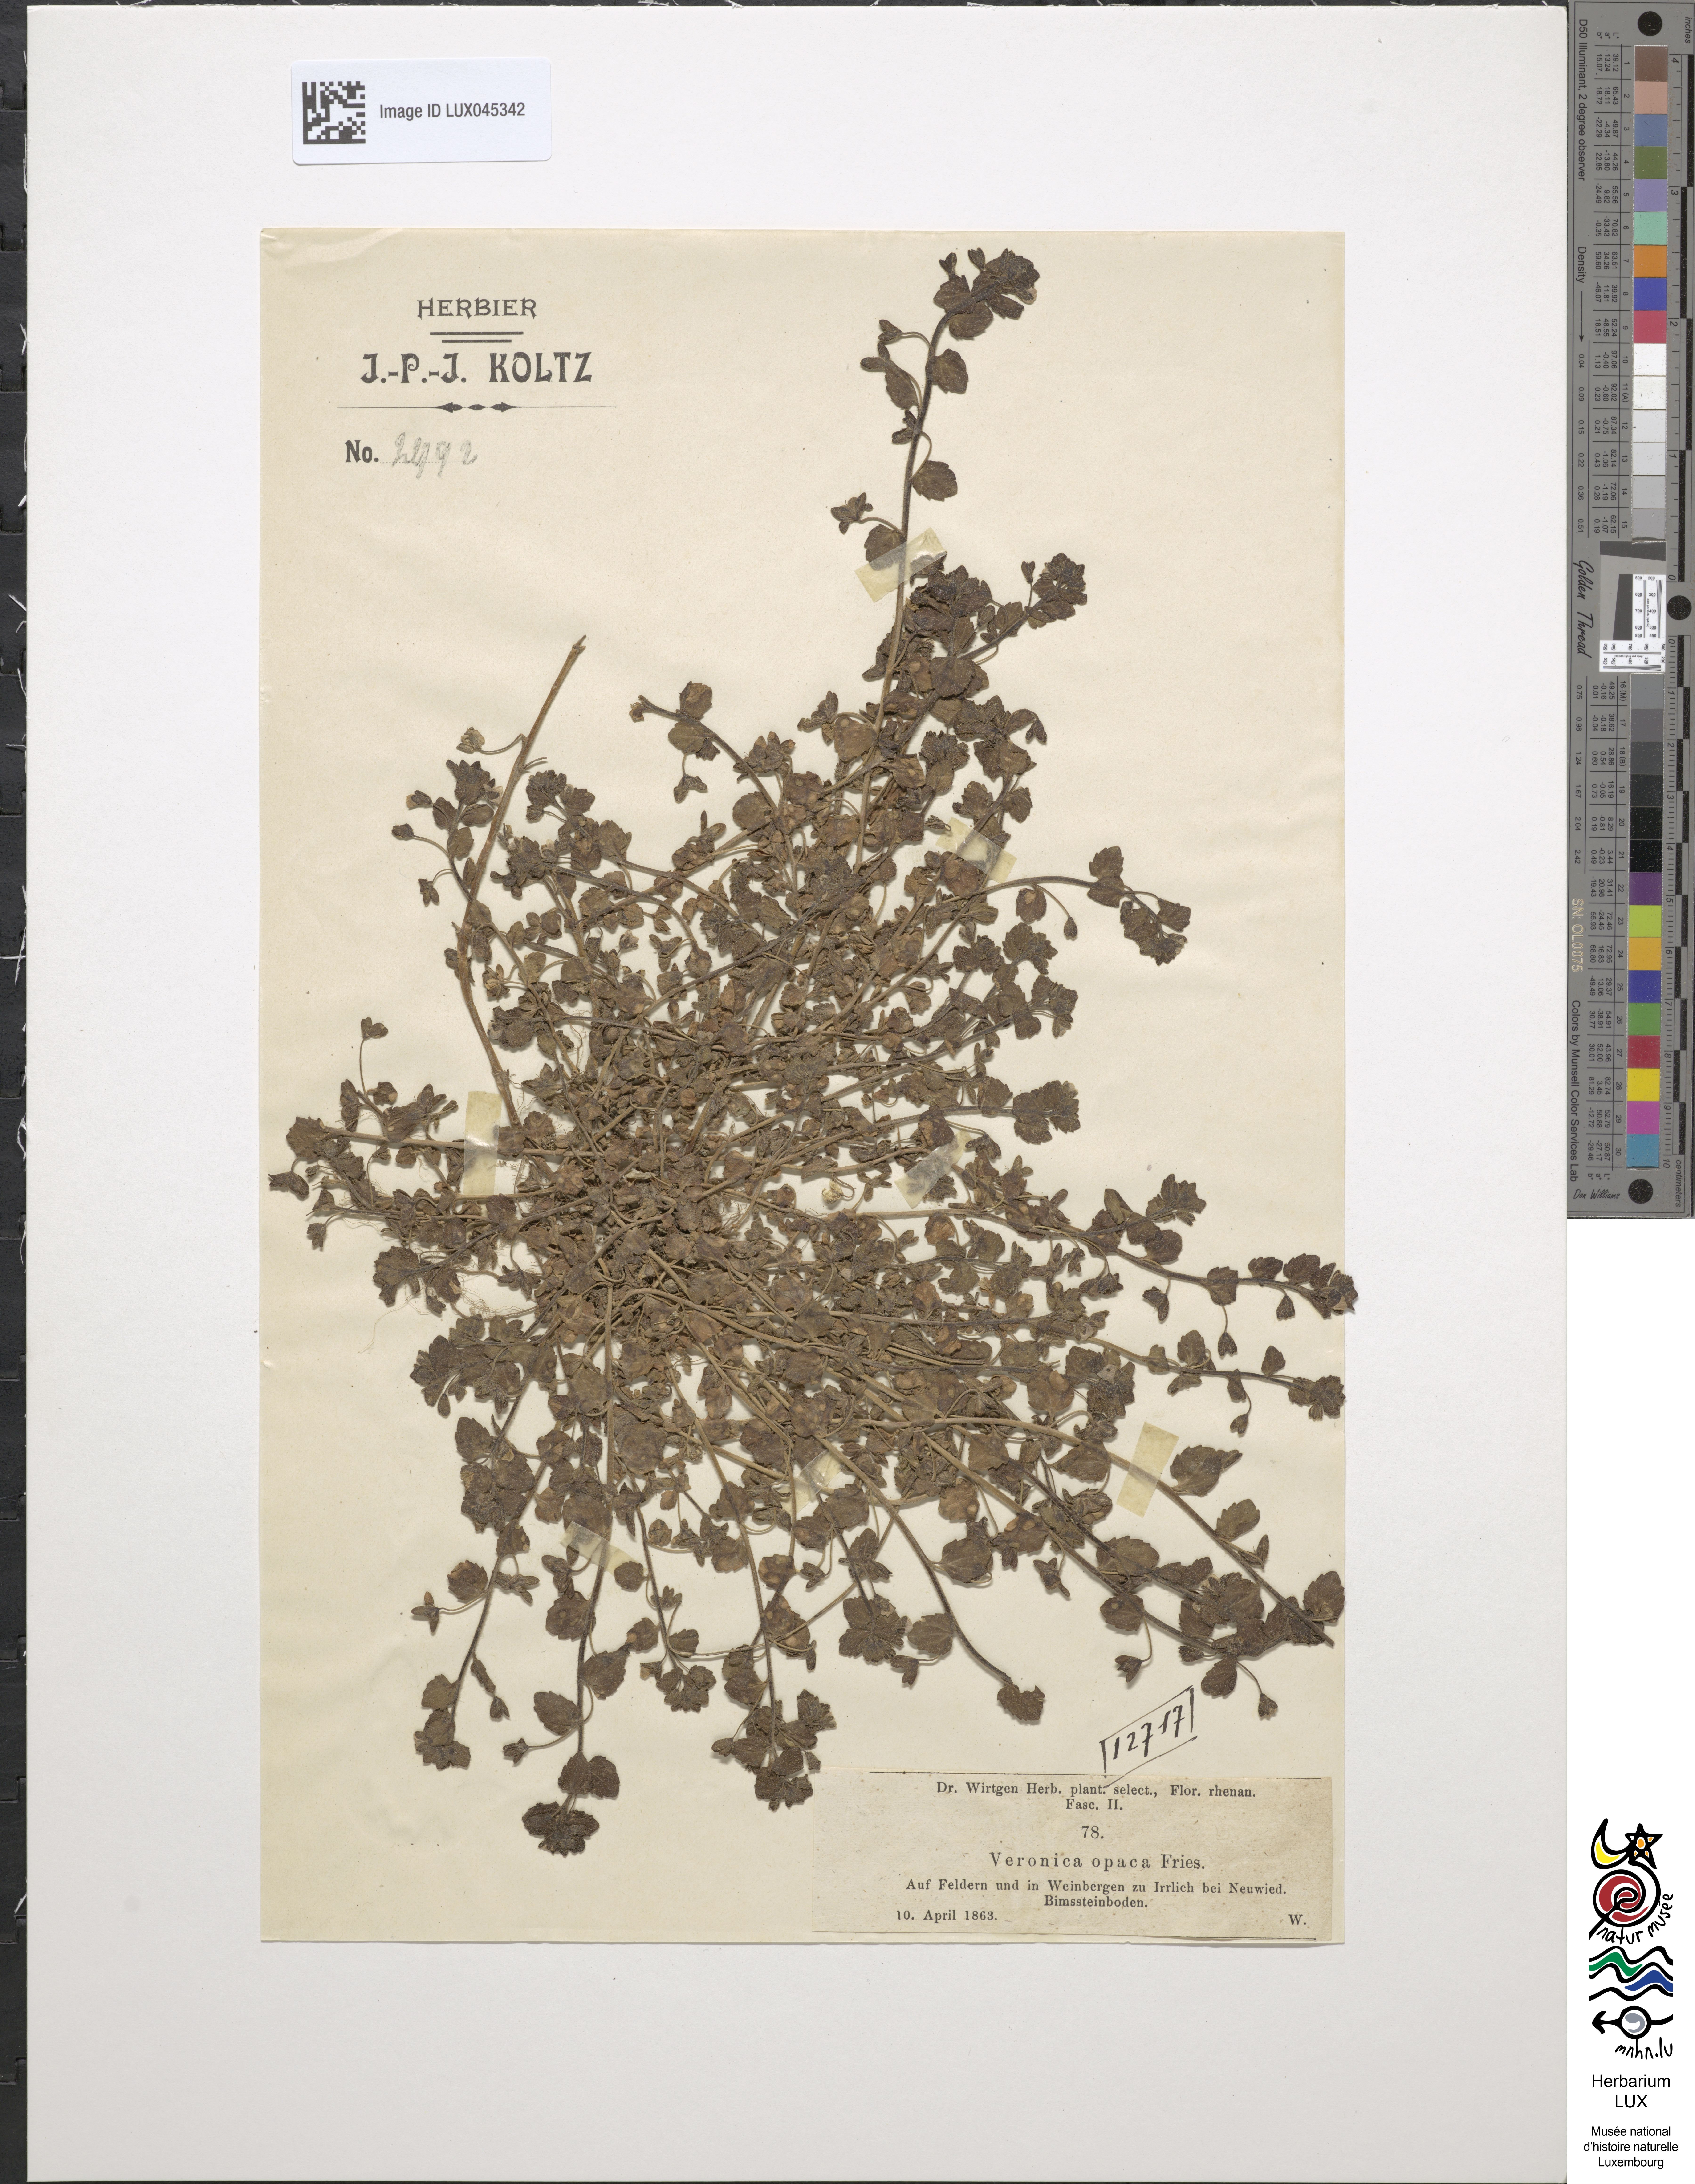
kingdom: Plantae
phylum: Tracheophyta
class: Magnoliopsida
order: Lamiales
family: Plantaginaceae
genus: Veronica
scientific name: Veronica opaca
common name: Dark speedwell
